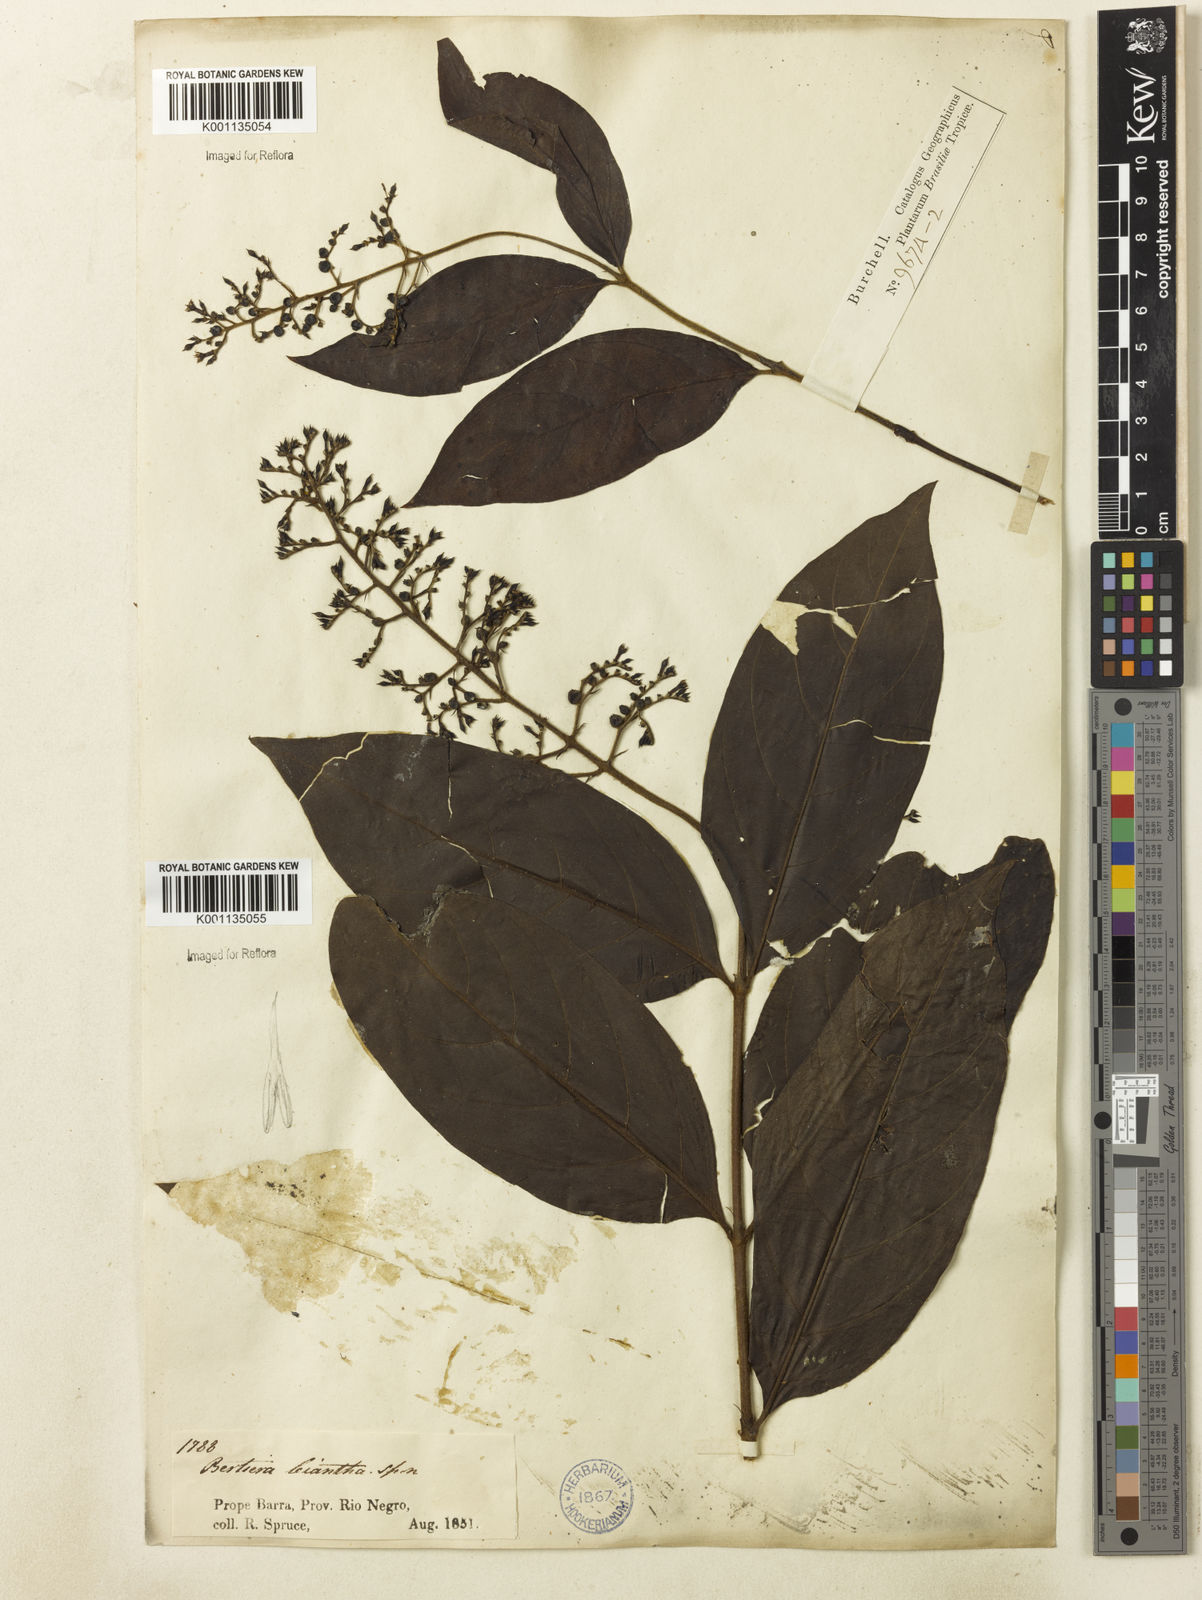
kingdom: Plantae
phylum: Tracheophyta
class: Magnoliopsida
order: Gentianales
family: Rubiaceae
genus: Bertiera
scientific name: Bertiera guianensis
